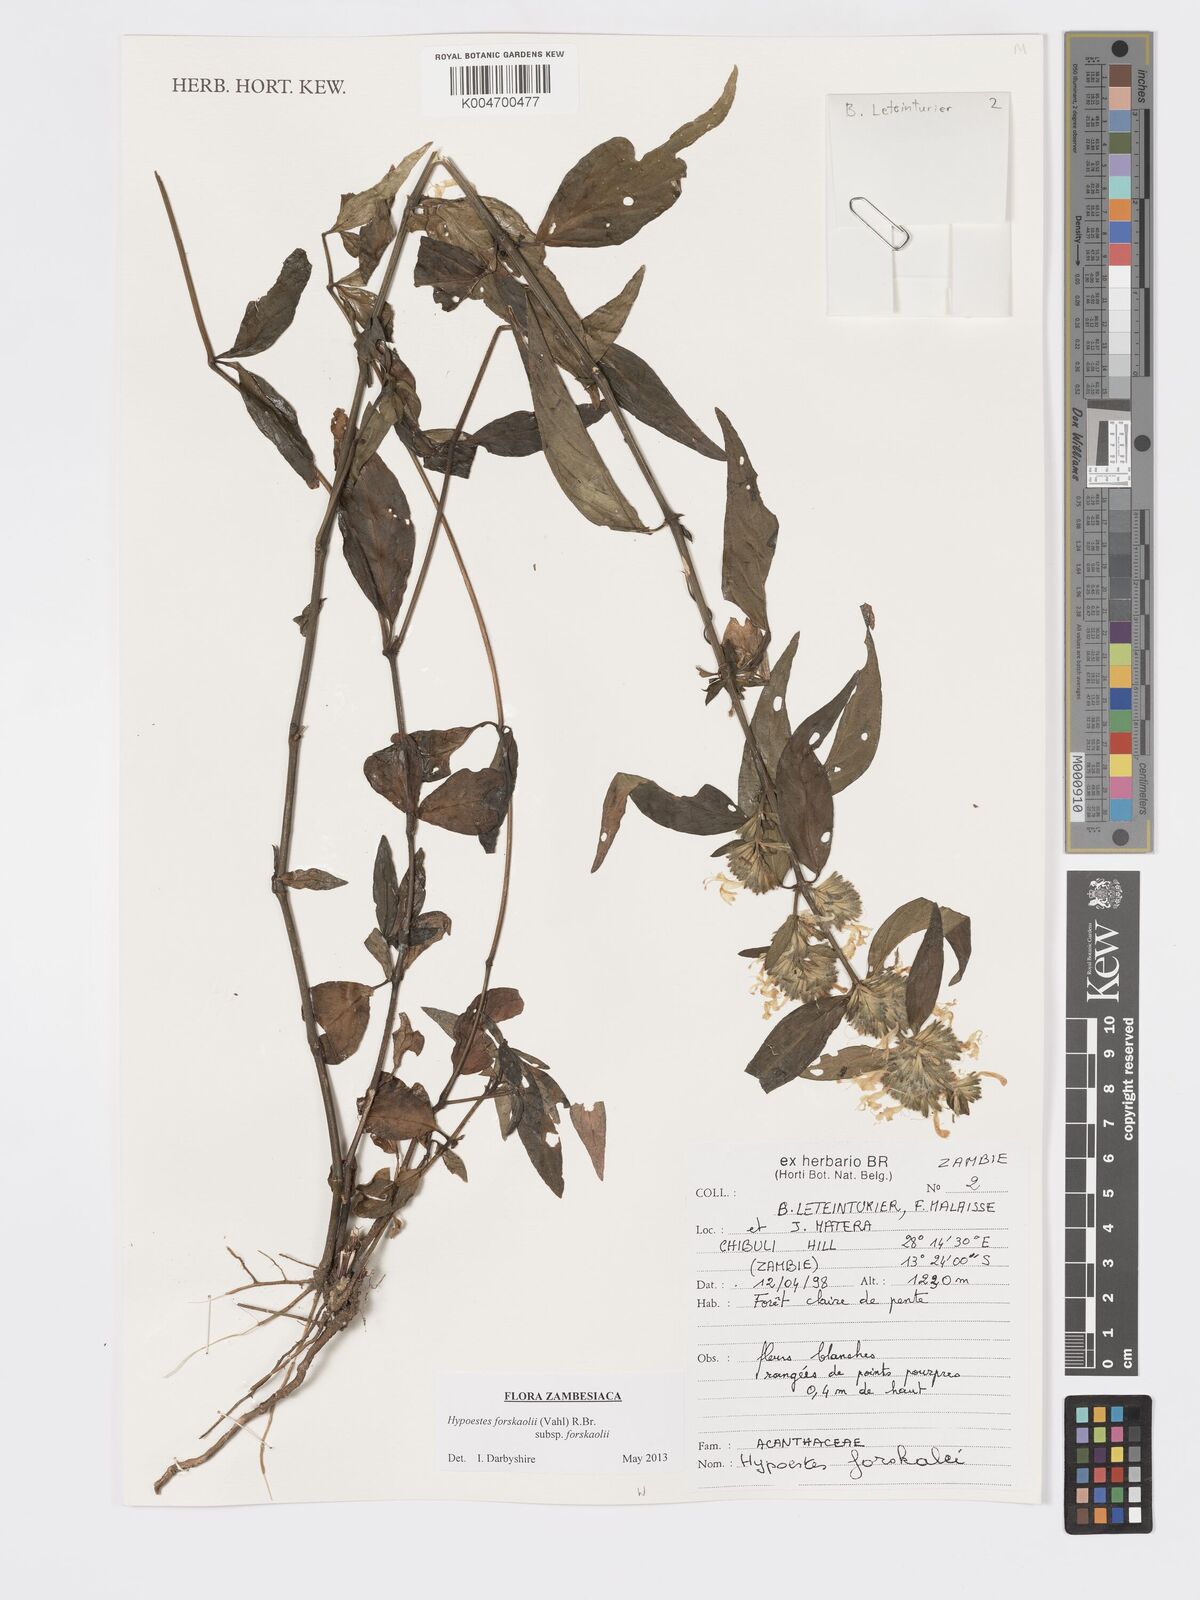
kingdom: Plantae
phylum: Tracheophyta
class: Magnoliopsida
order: Lamiales
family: Acanthaceae
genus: Hypoestes
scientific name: Hypoestes forskaolii
